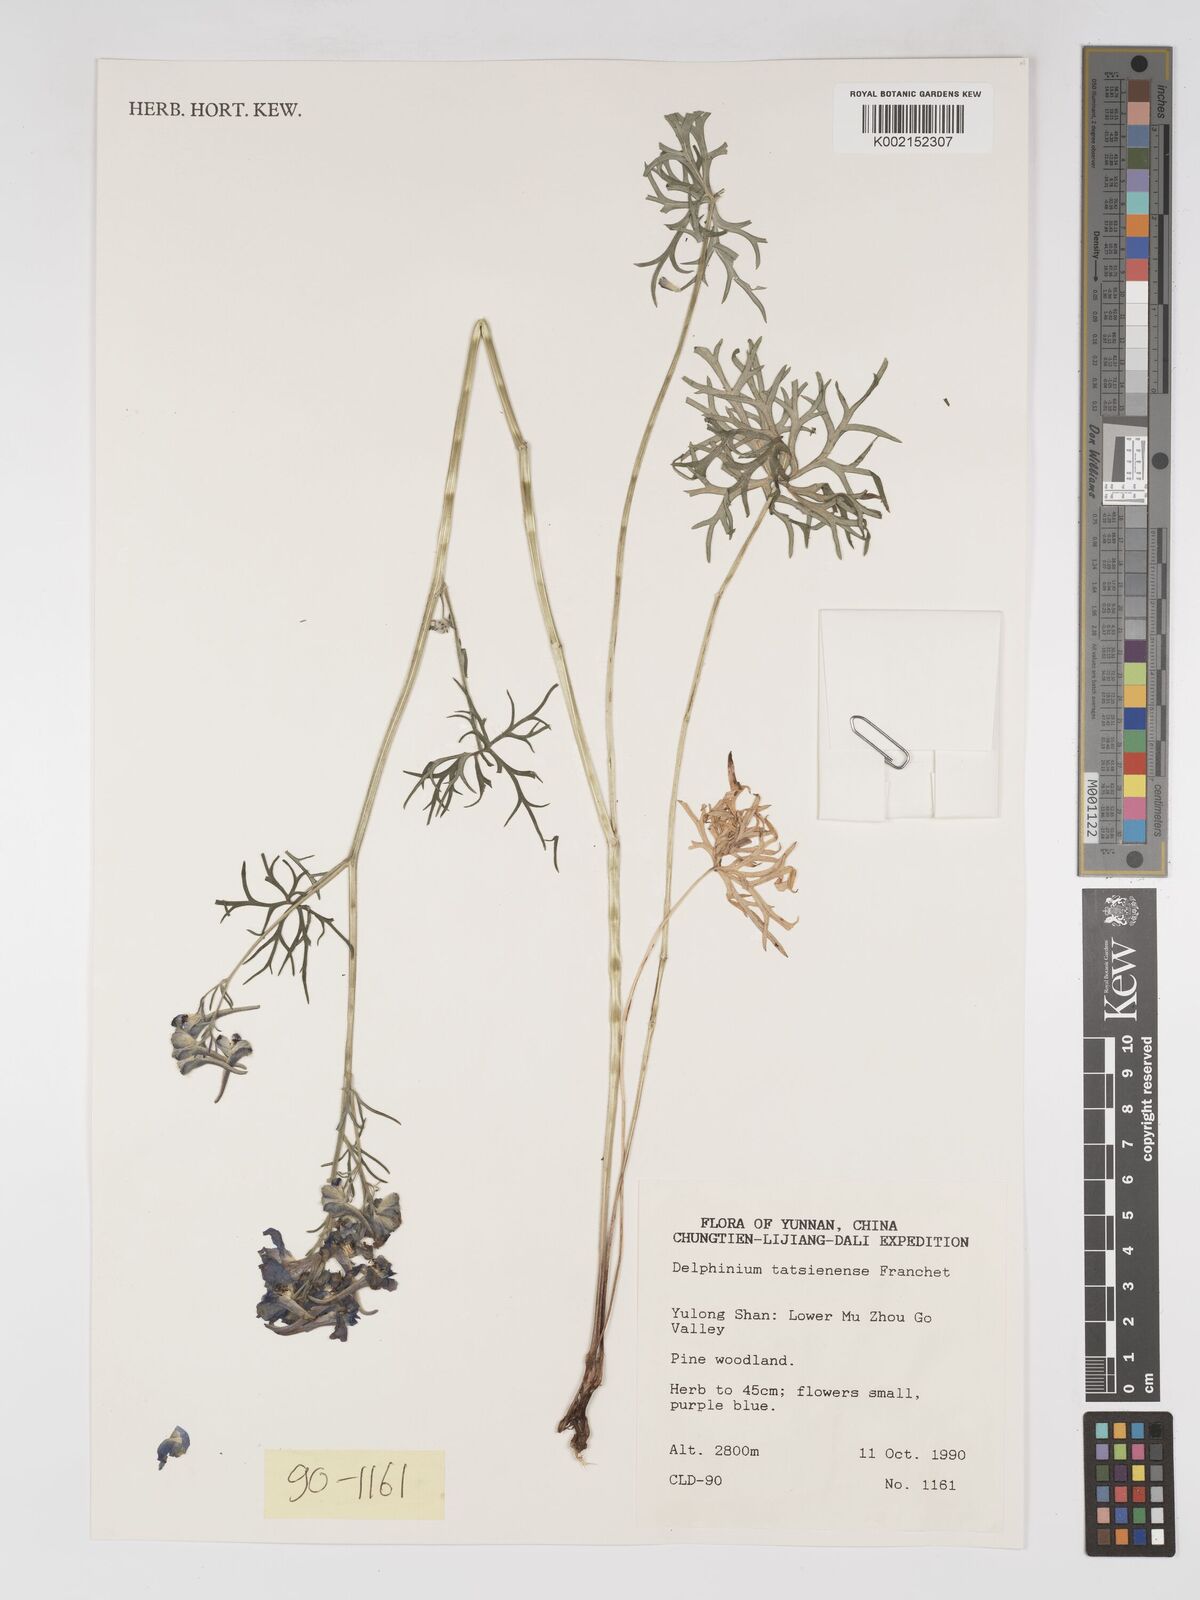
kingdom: Plantae
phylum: Tracheophyta
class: Magnoliopsida
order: Ranunculales
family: Ranunculaceae
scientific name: Ranunculaceae
